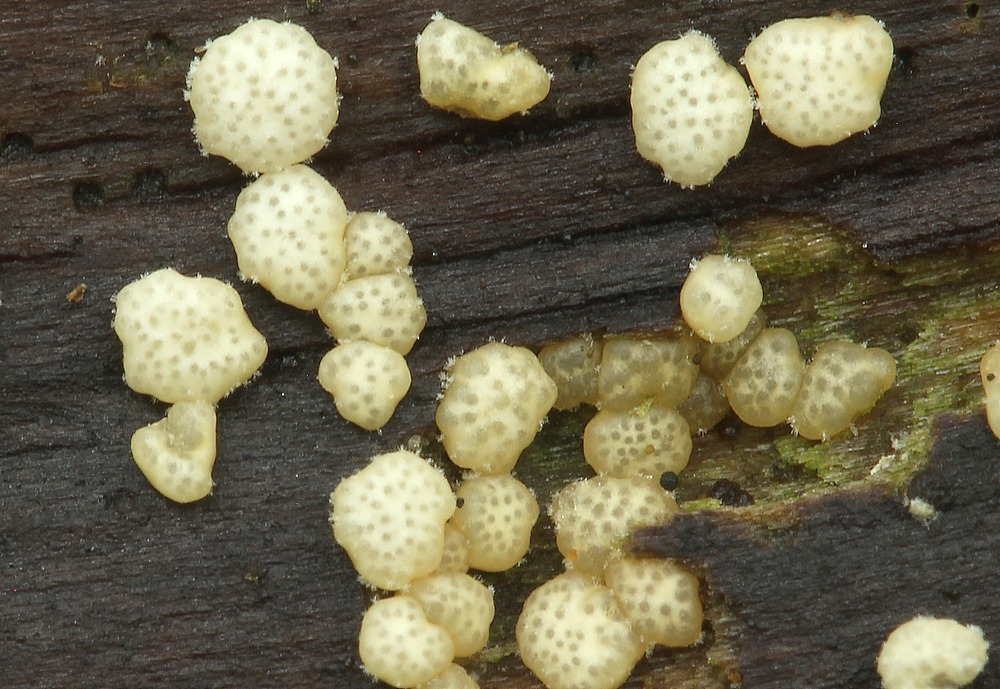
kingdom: Fungi
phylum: Ascomycota
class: Sordariomycetes
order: Hypocreales
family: Hypocreaceae
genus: Trichoderma
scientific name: Trichoderma
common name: kødkerne
